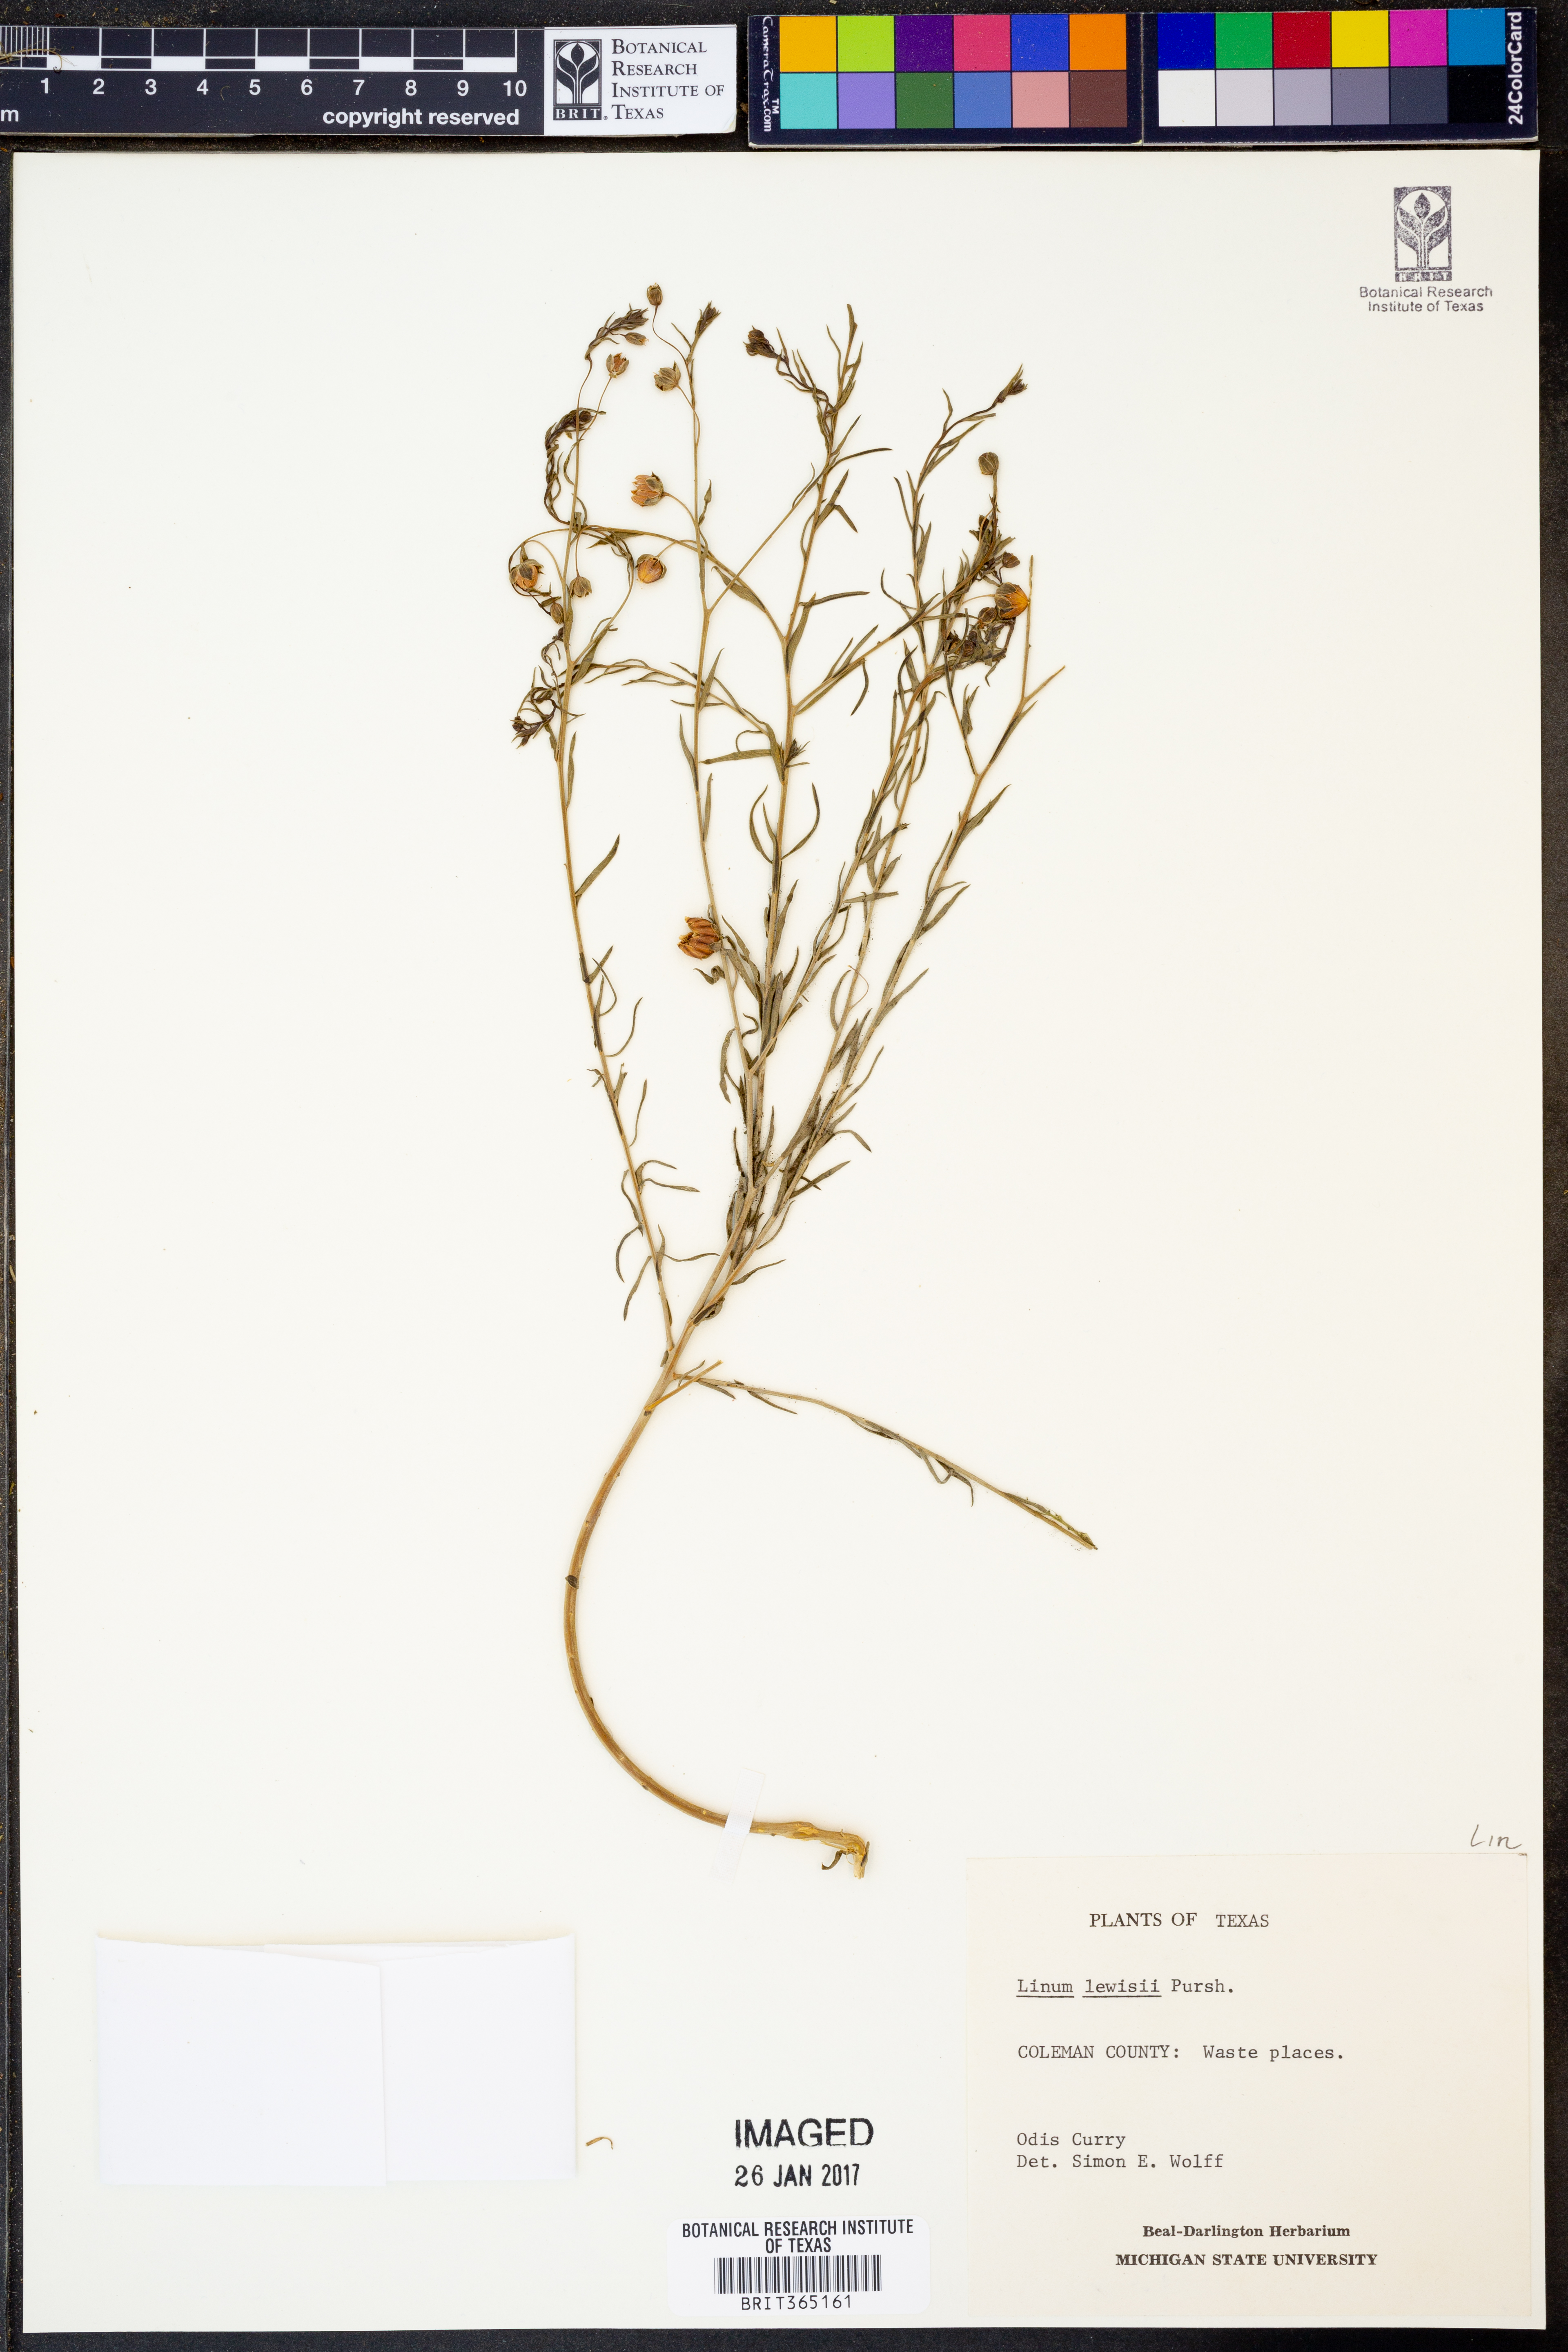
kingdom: Plantae
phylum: Tracheophyta
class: Magnoliopsida
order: Malpighiales
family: Linaceae
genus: Linum
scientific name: Linum lewisii
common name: Prairie flax
